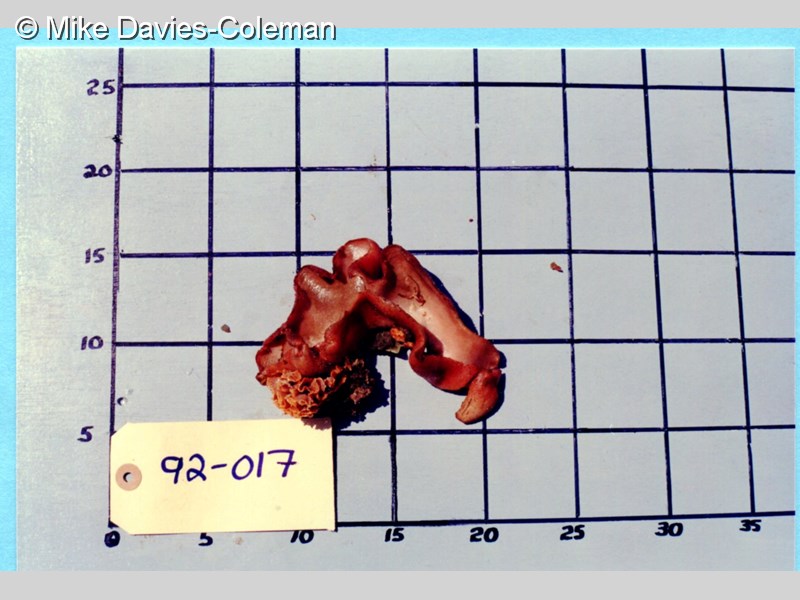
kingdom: Animalia
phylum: Porifera
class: Calcarea
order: Leucosolenida
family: Grantiidae
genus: Amphiute
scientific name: Amphiute lepadiformis
